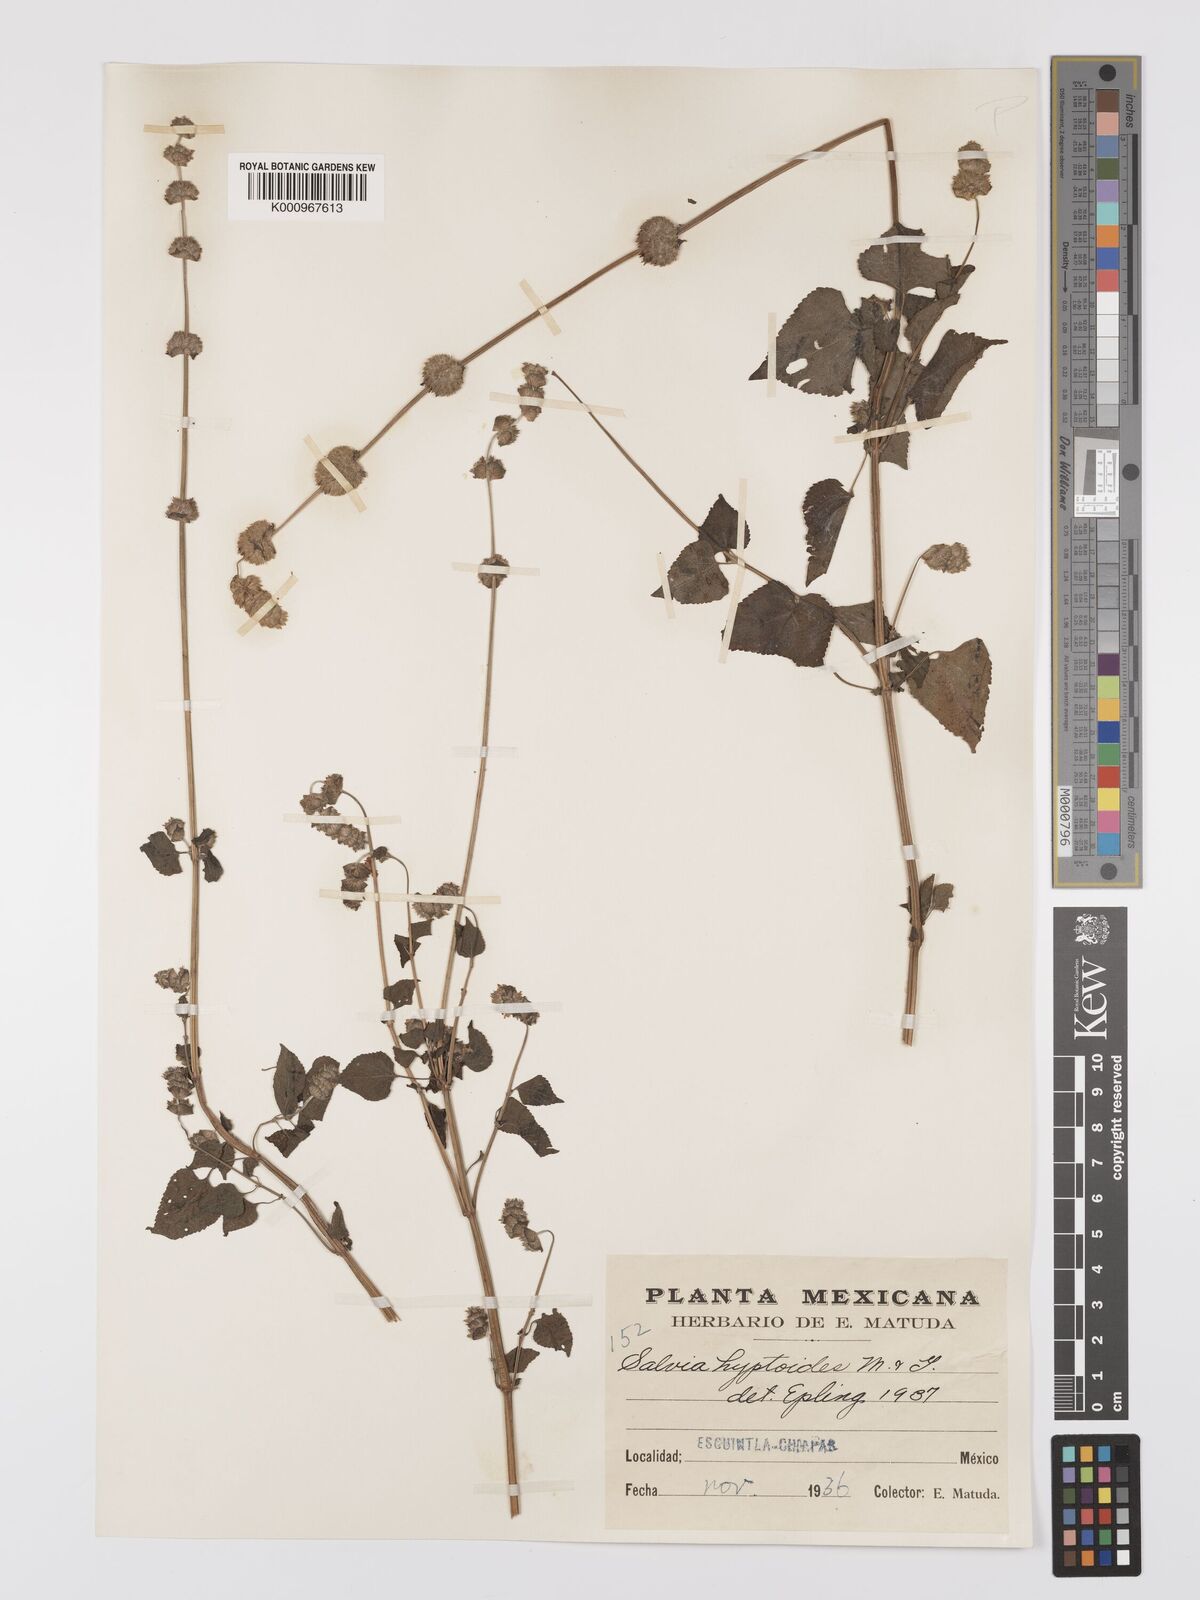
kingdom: Plantae
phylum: Tracheophyta
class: Magnoliopsida
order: Lamiales
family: Lamiaceae
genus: Salvia
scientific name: Salvia lasiocephala
